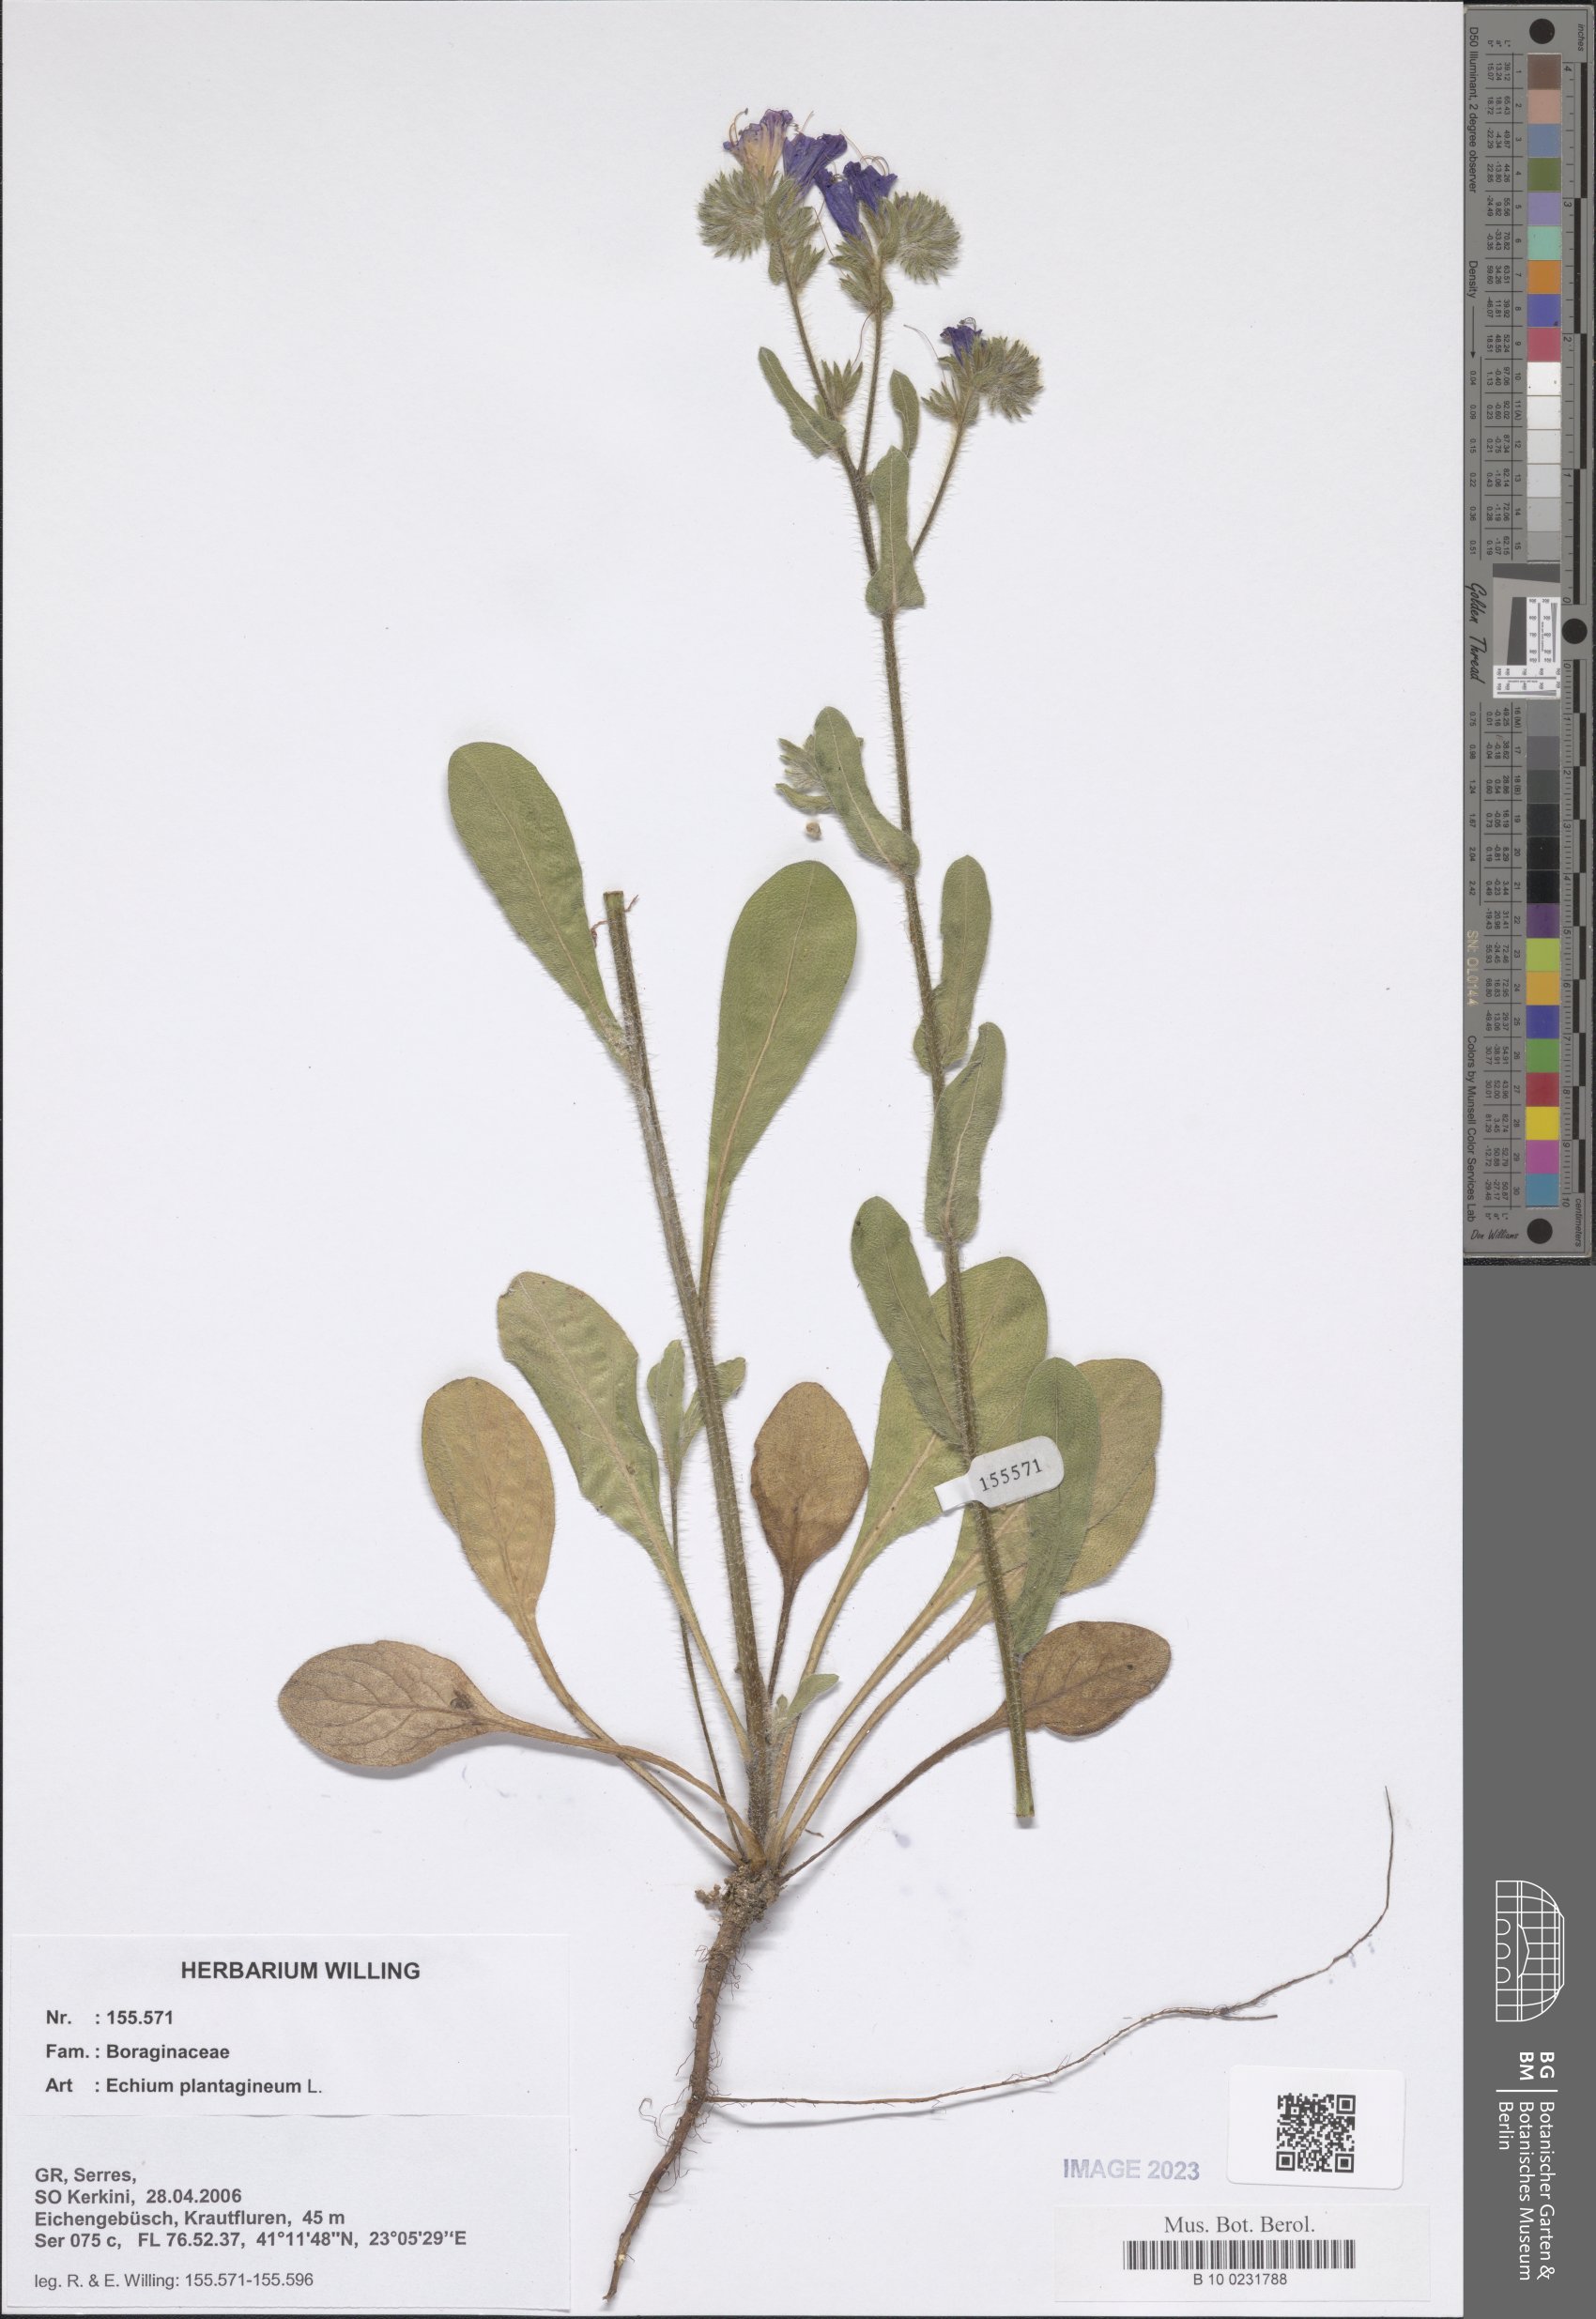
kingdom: Plantae
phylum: Tracheophyta
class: Magnoliopsida
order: Boraginales
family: Boraginaceae
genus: Echium
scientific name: Echium plantagineum
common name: Purple viper's-bugloss
